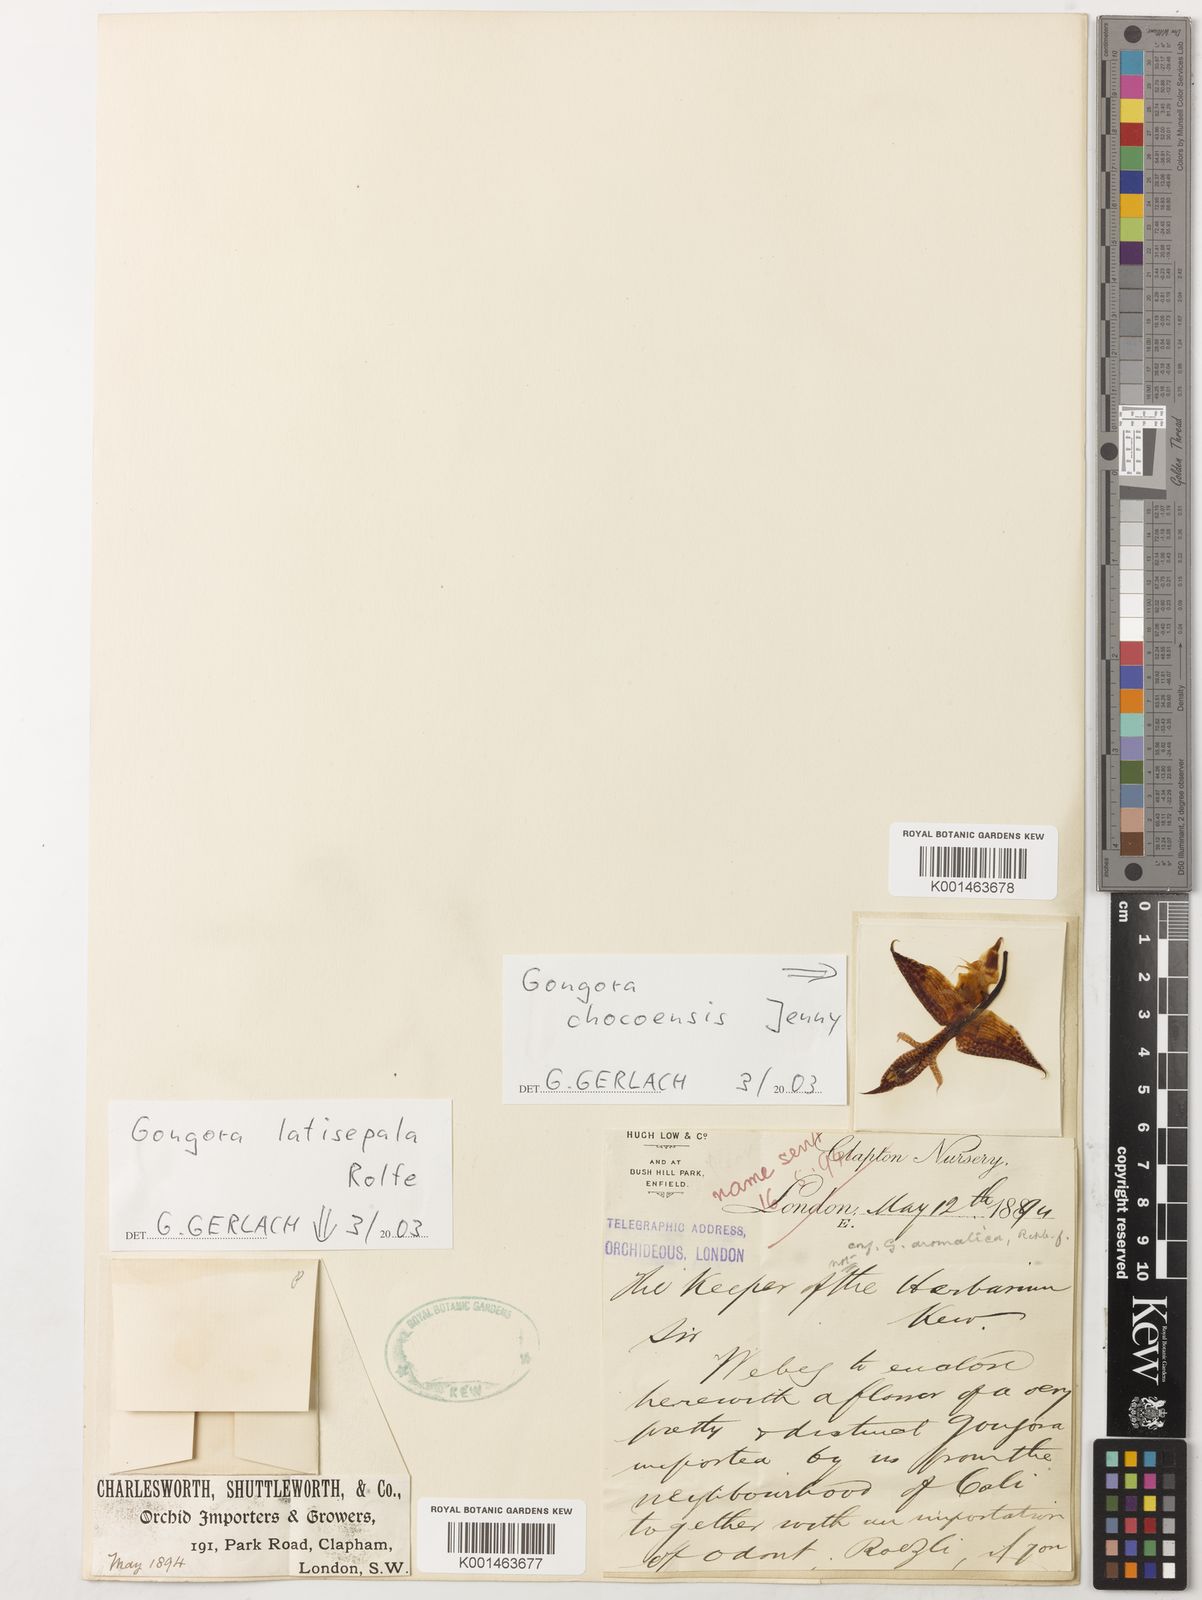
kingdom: Plantae
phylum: Tracheophyta
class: Liliopsida
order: Asparagales
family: Orchidaceae
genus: Gongora
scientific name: Gongora latisepala
